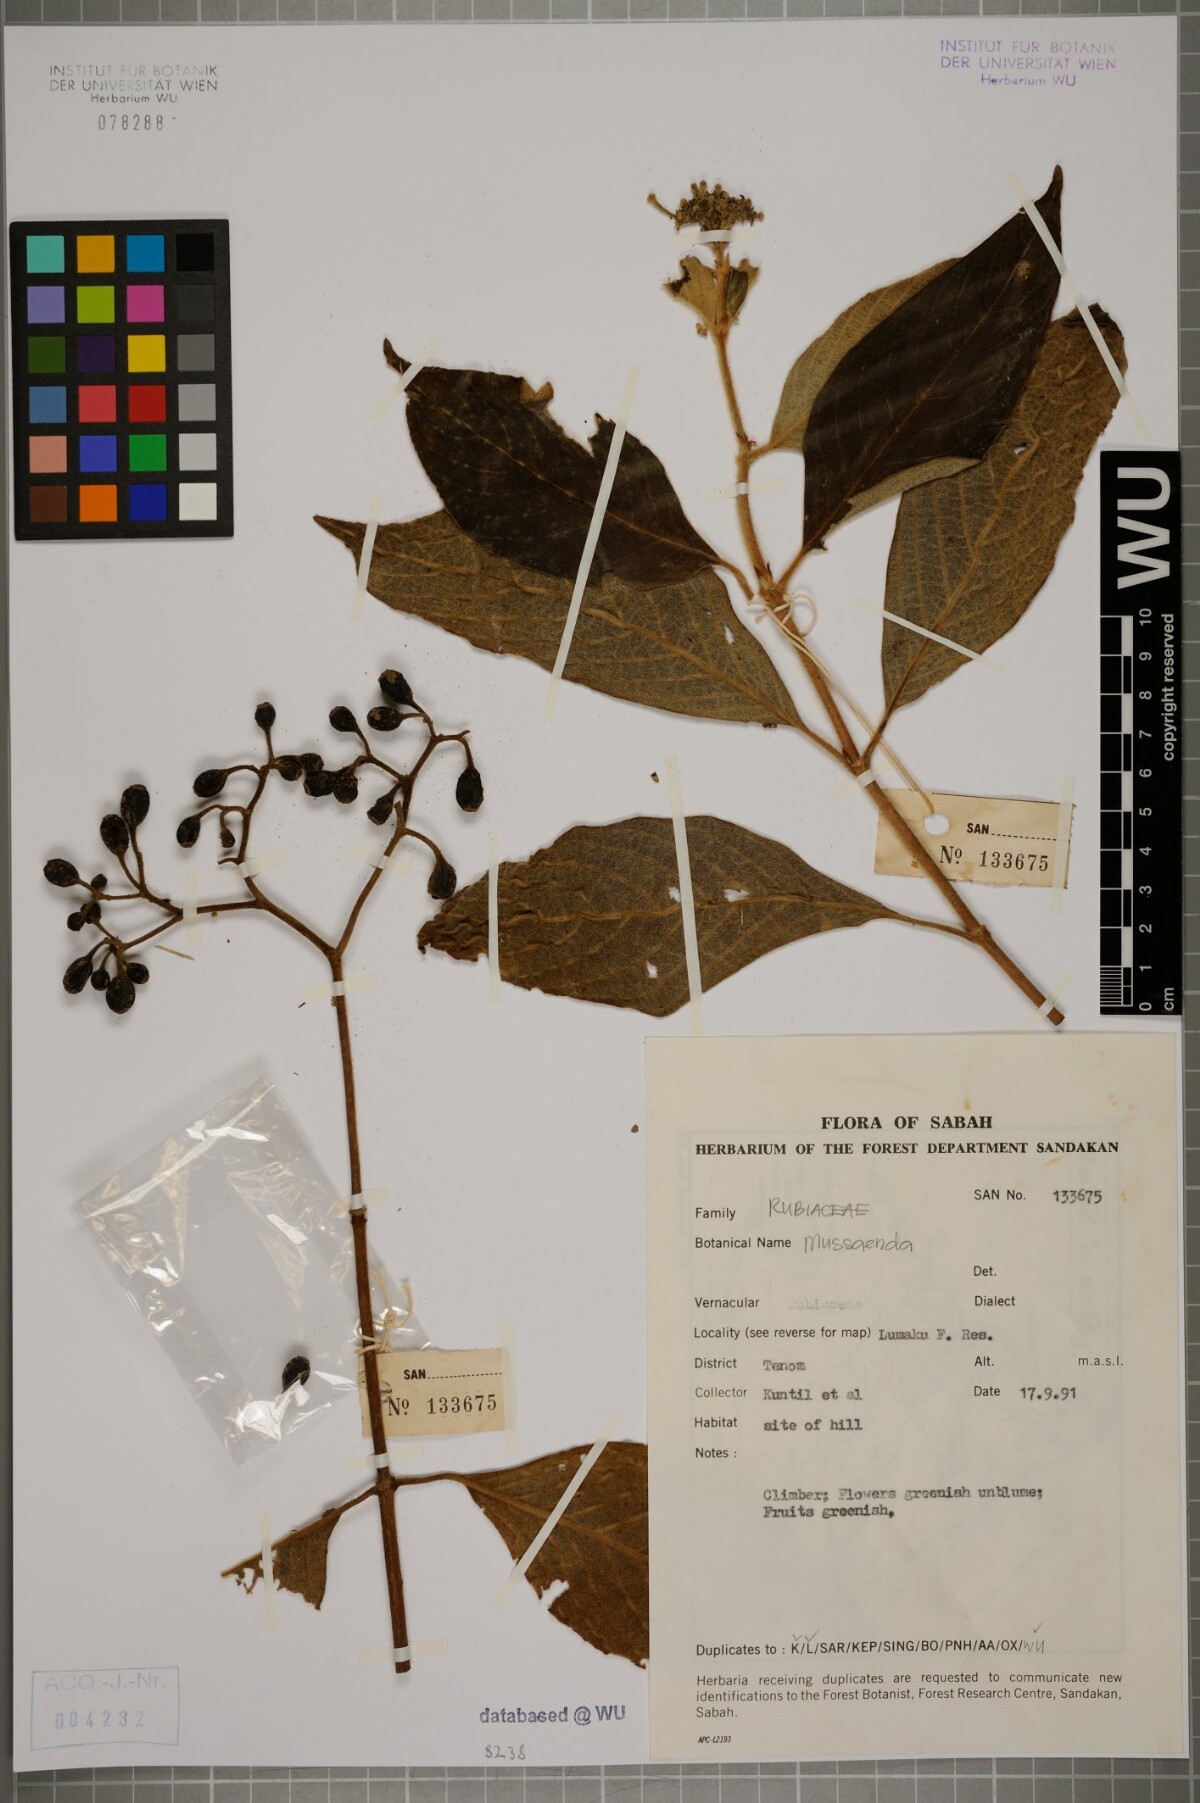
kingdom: Plantae
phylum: Tracheophyta
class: Magnoliopsida
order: Gentianales
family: Rubiaceae
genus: Mussaenda
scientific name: Mussaenda
